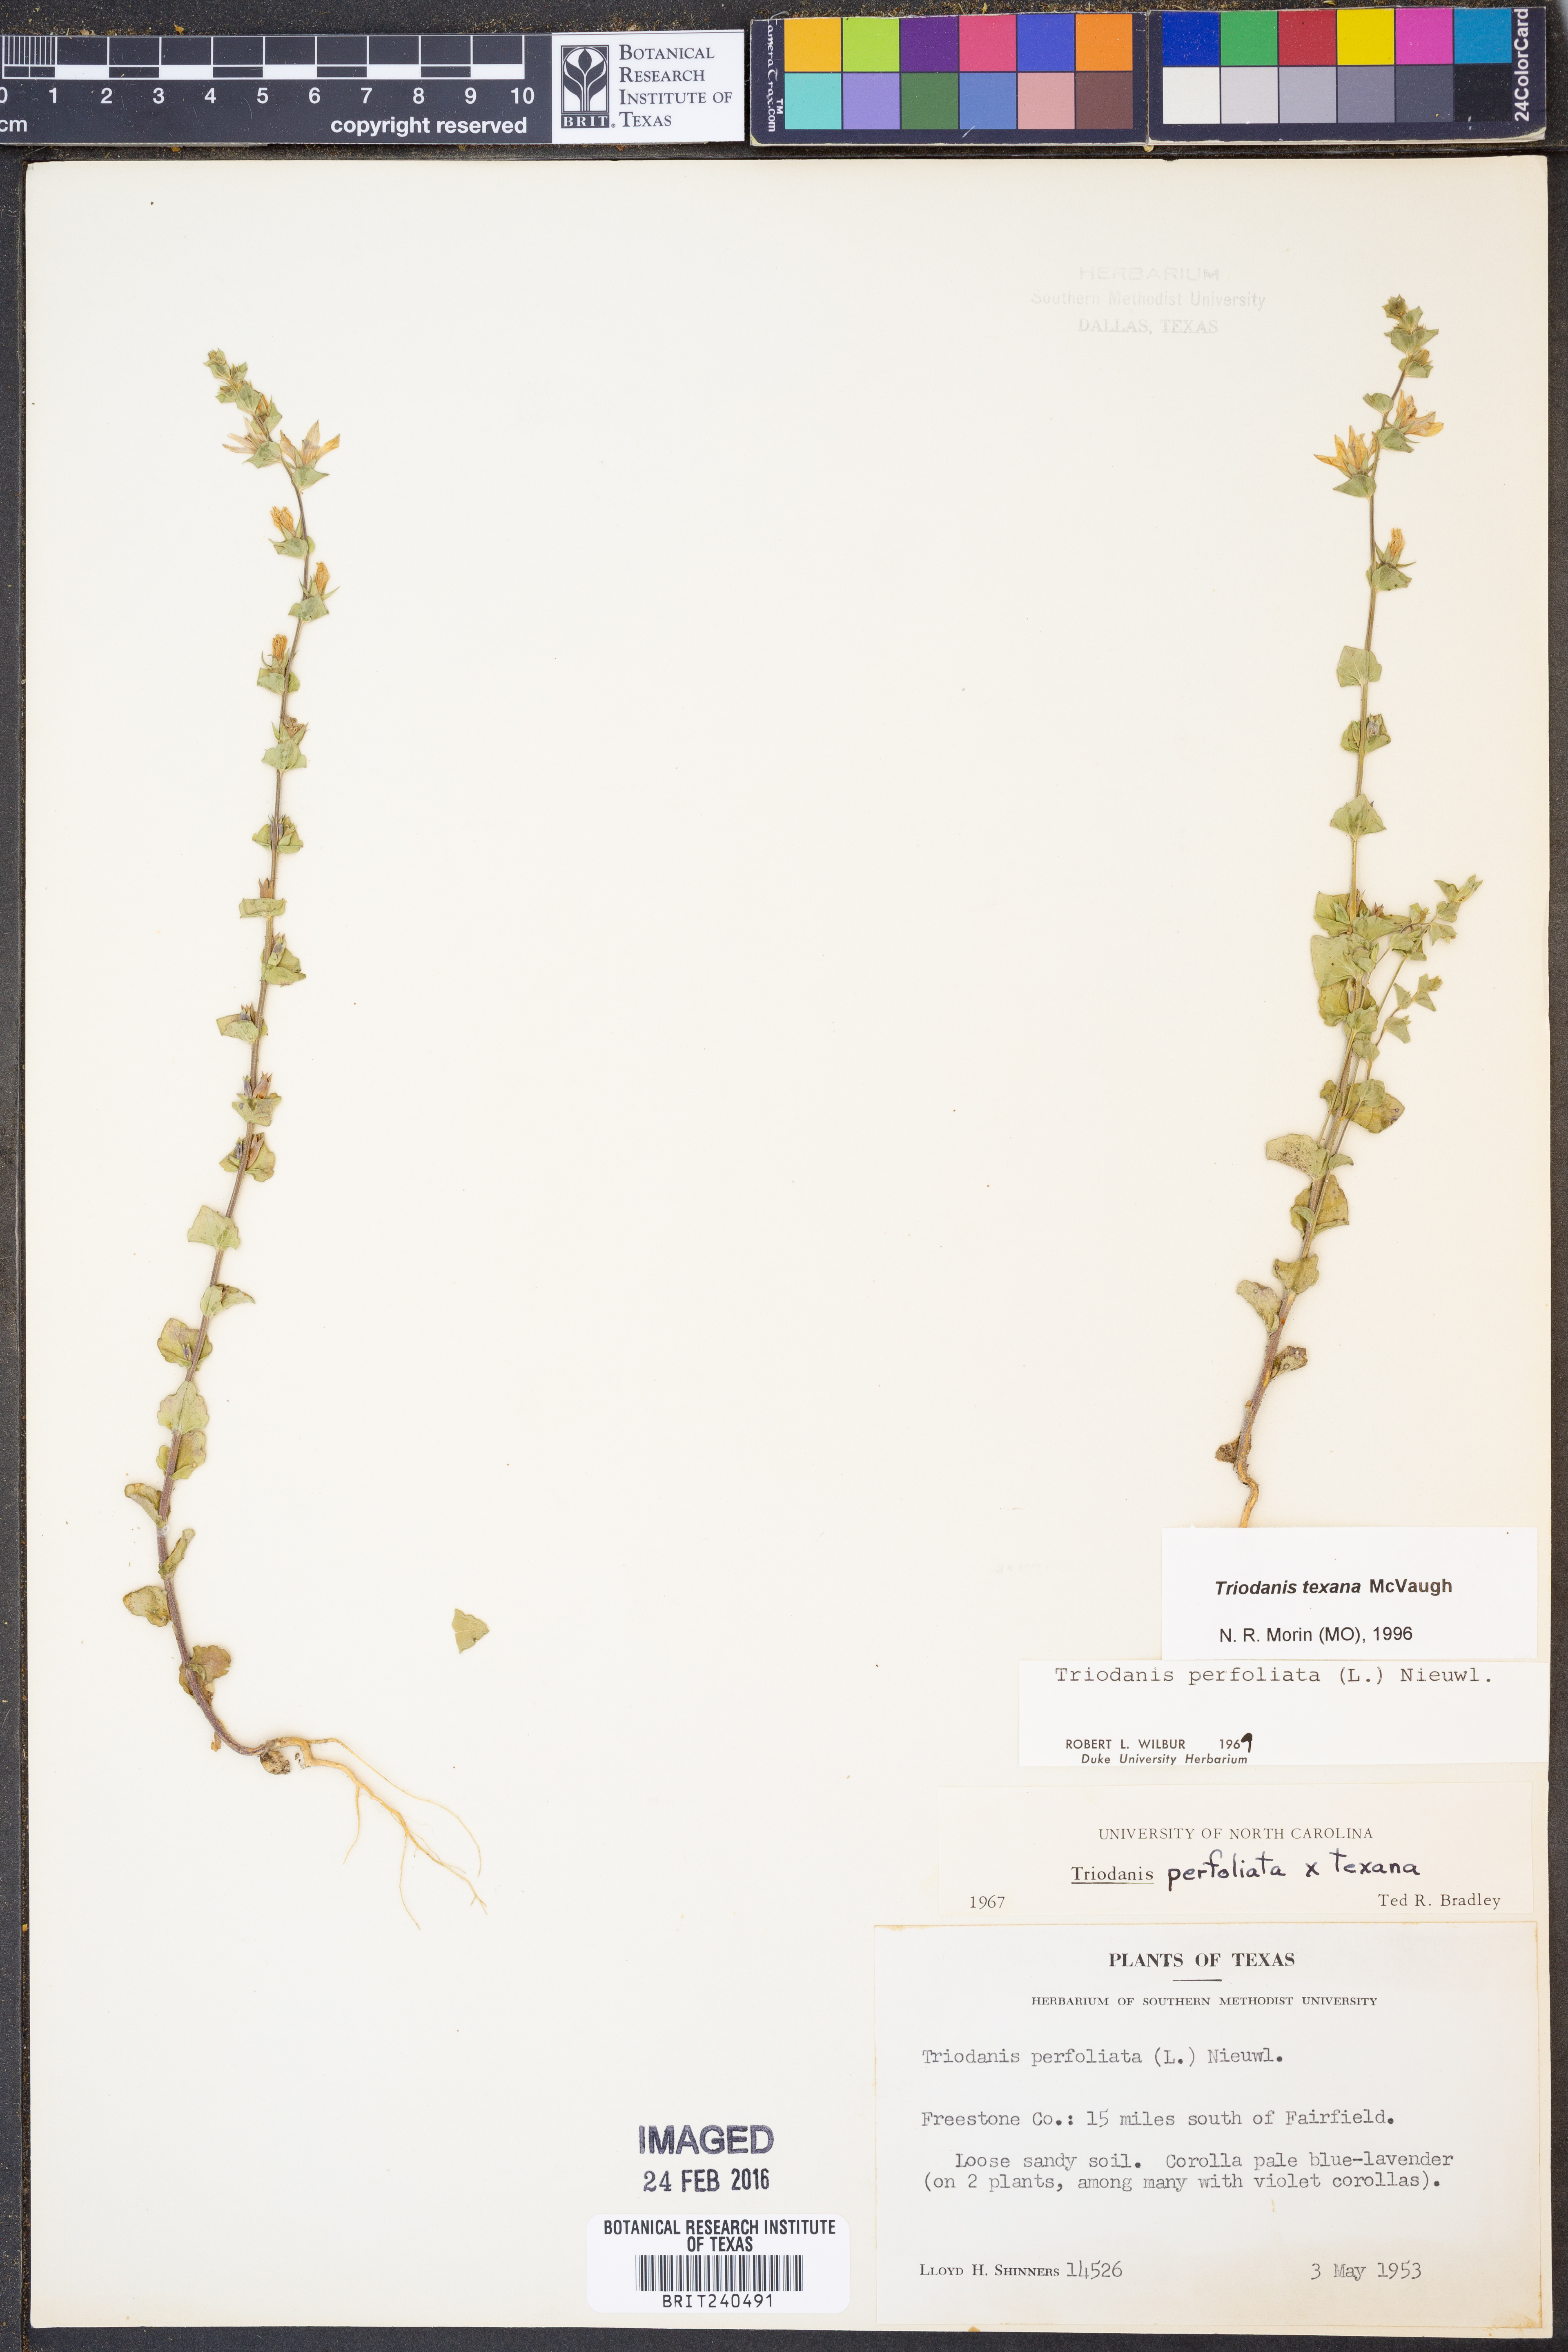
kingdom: Plantae
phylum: Tracheophyta
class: Magnoliopsida
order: Asterales
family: Campanulaceae
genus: Triodanis
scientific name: Triodanis texana
